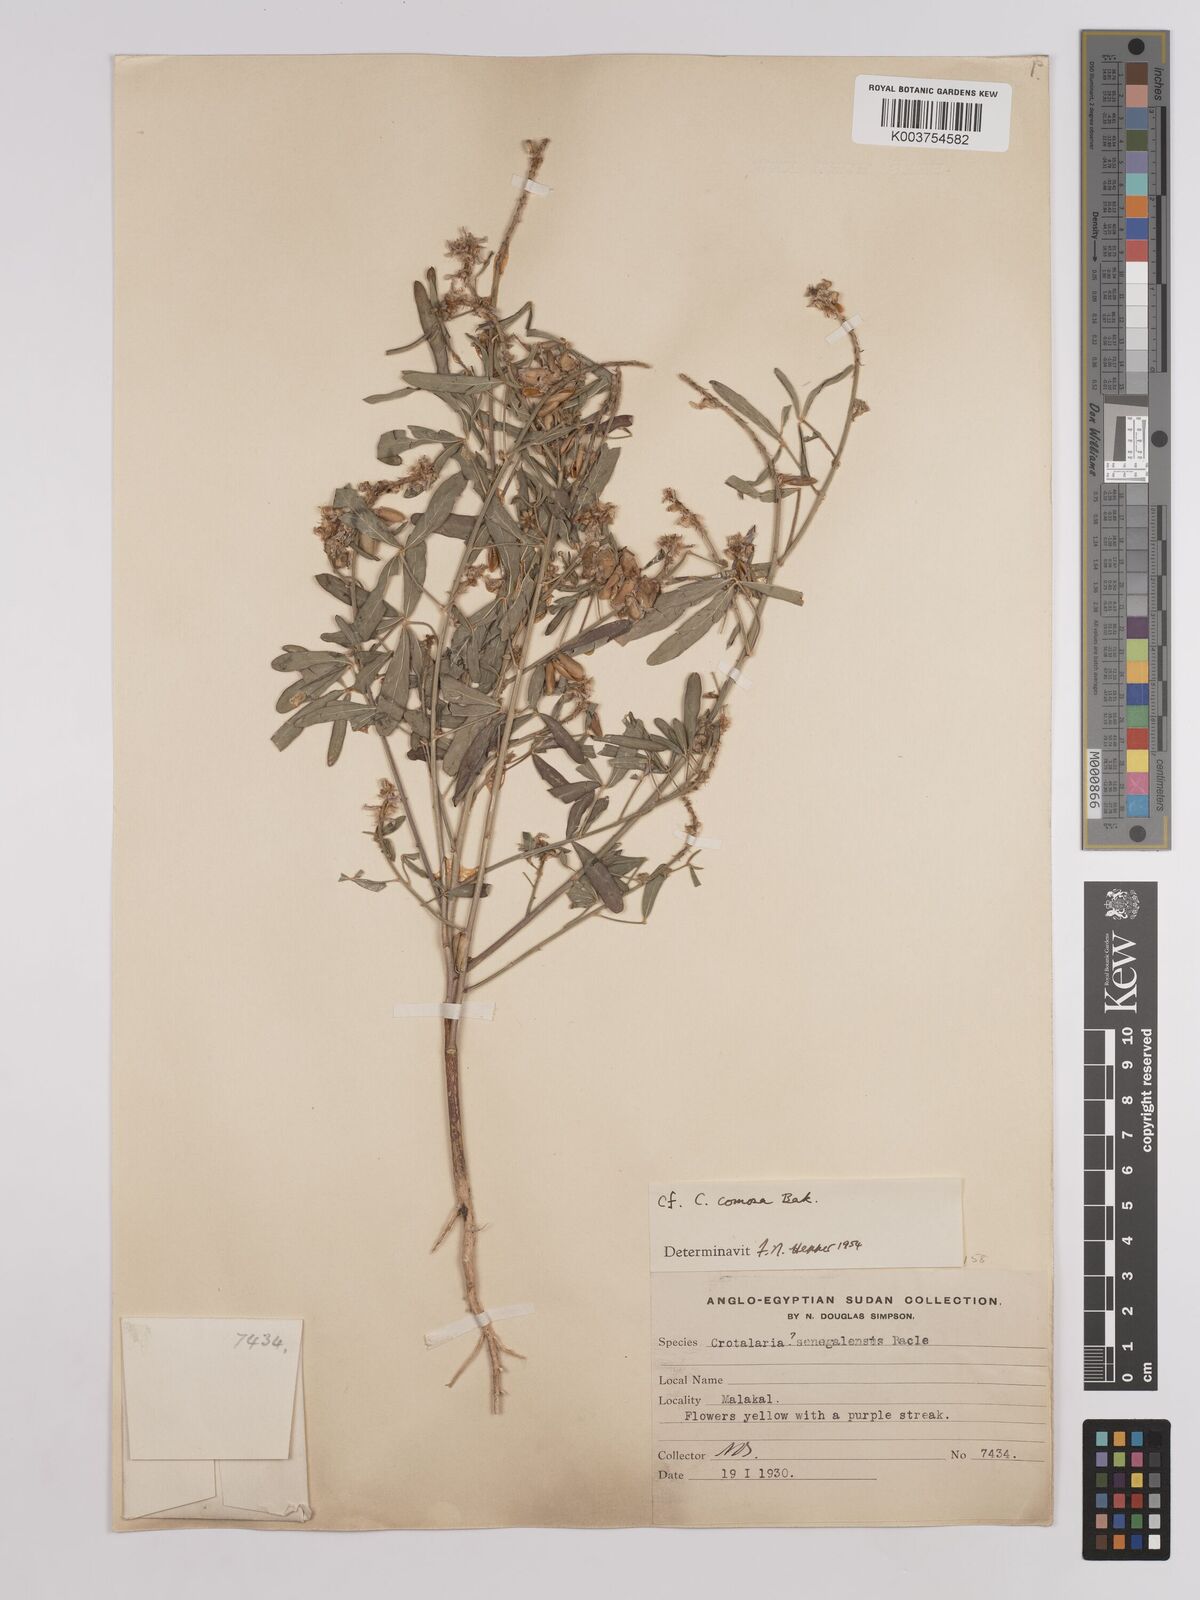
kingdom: Plantae
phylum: Tracheophyta
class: Magnoliopsida
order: Fabales
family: Fabaceae
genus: Crotalaria
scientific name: Crotalaria comosa
